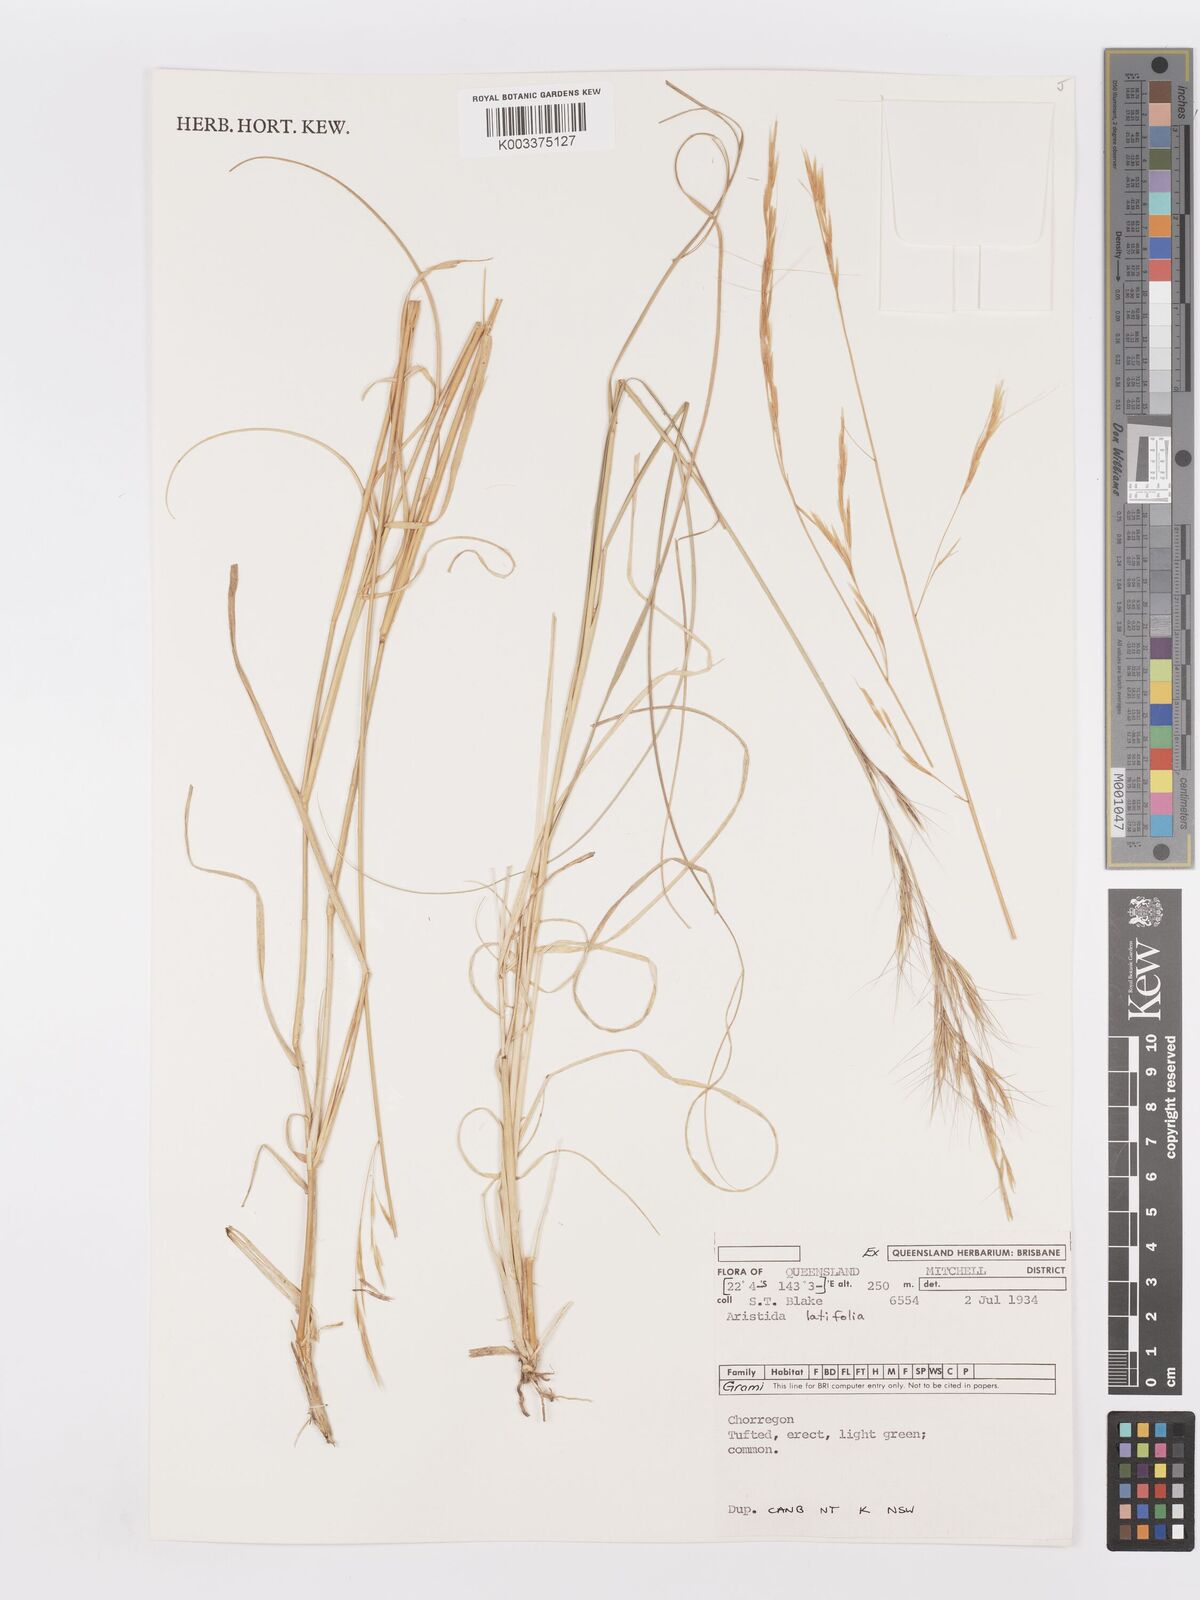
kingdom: Plantae
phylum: Tracheophyta
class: Liliopsida
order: Poales
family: Poaceae
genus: Aristida
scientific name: Aristida latifolia
